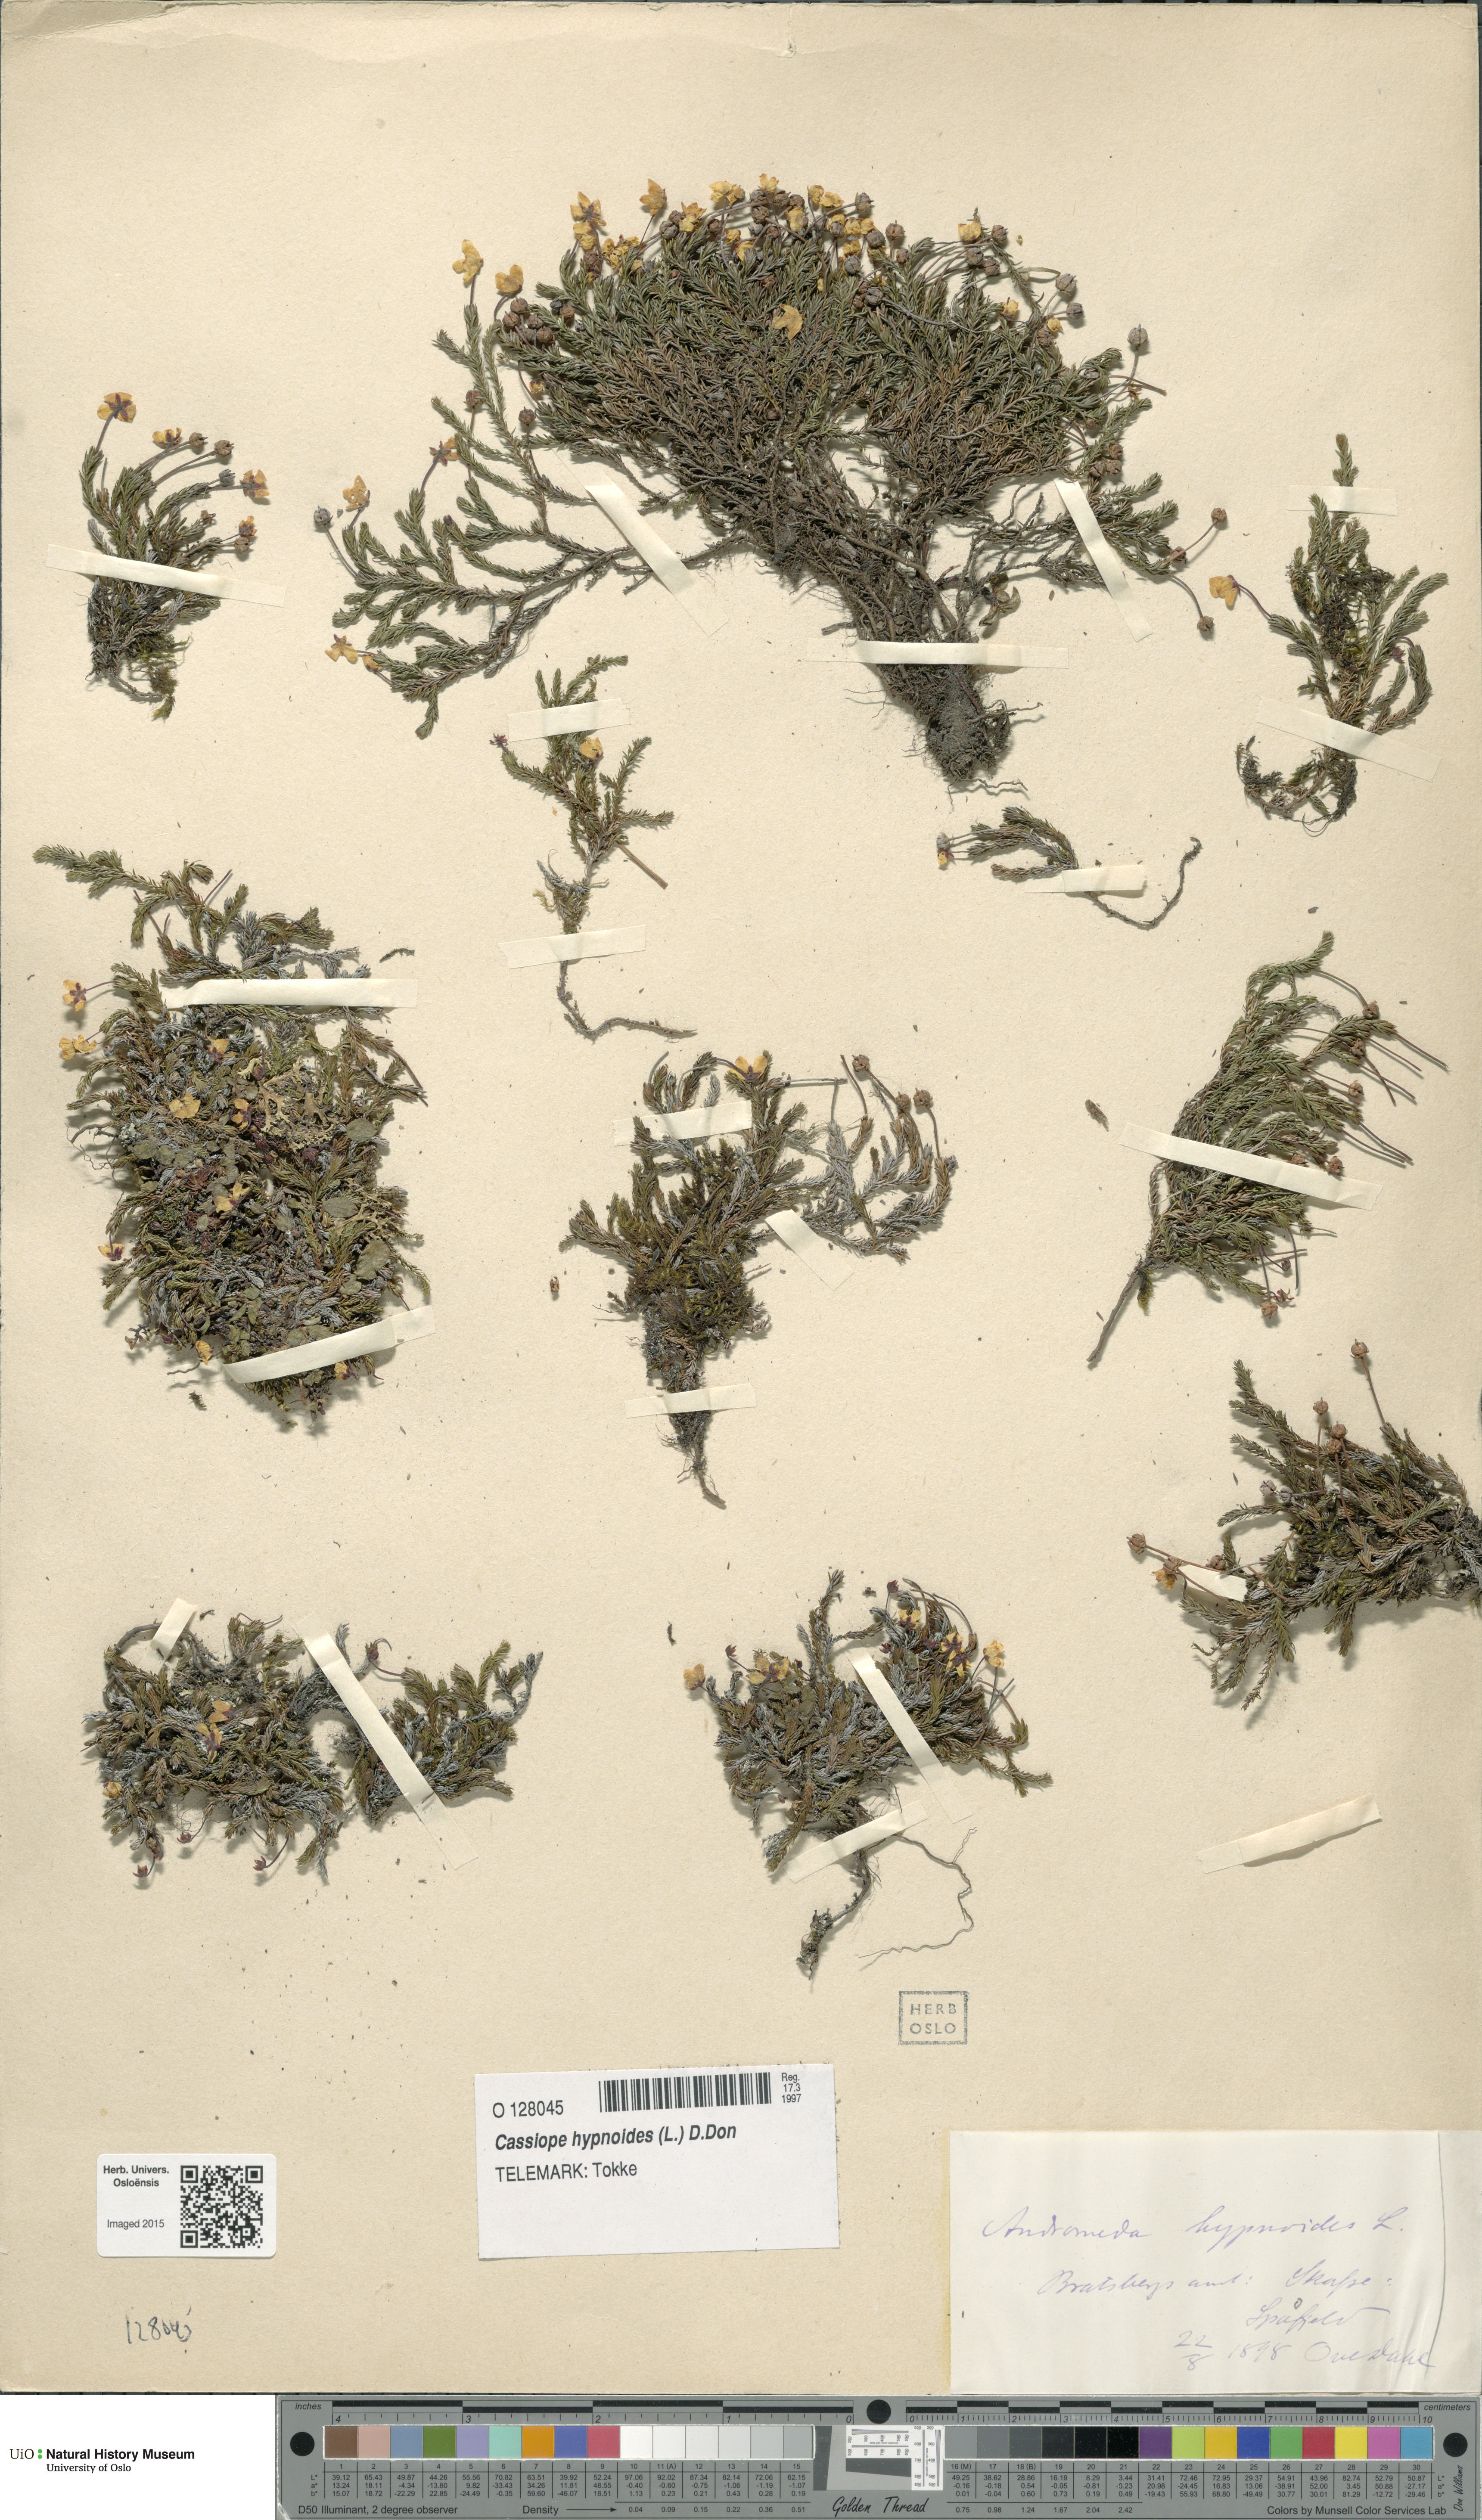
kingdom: Plantae
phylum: Tracheophyta
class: Magnoliopsida
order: Ericales
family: Ericaceae
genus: Harrimanella
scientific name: Harrimanella hypnoides
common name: Moss bell heather
